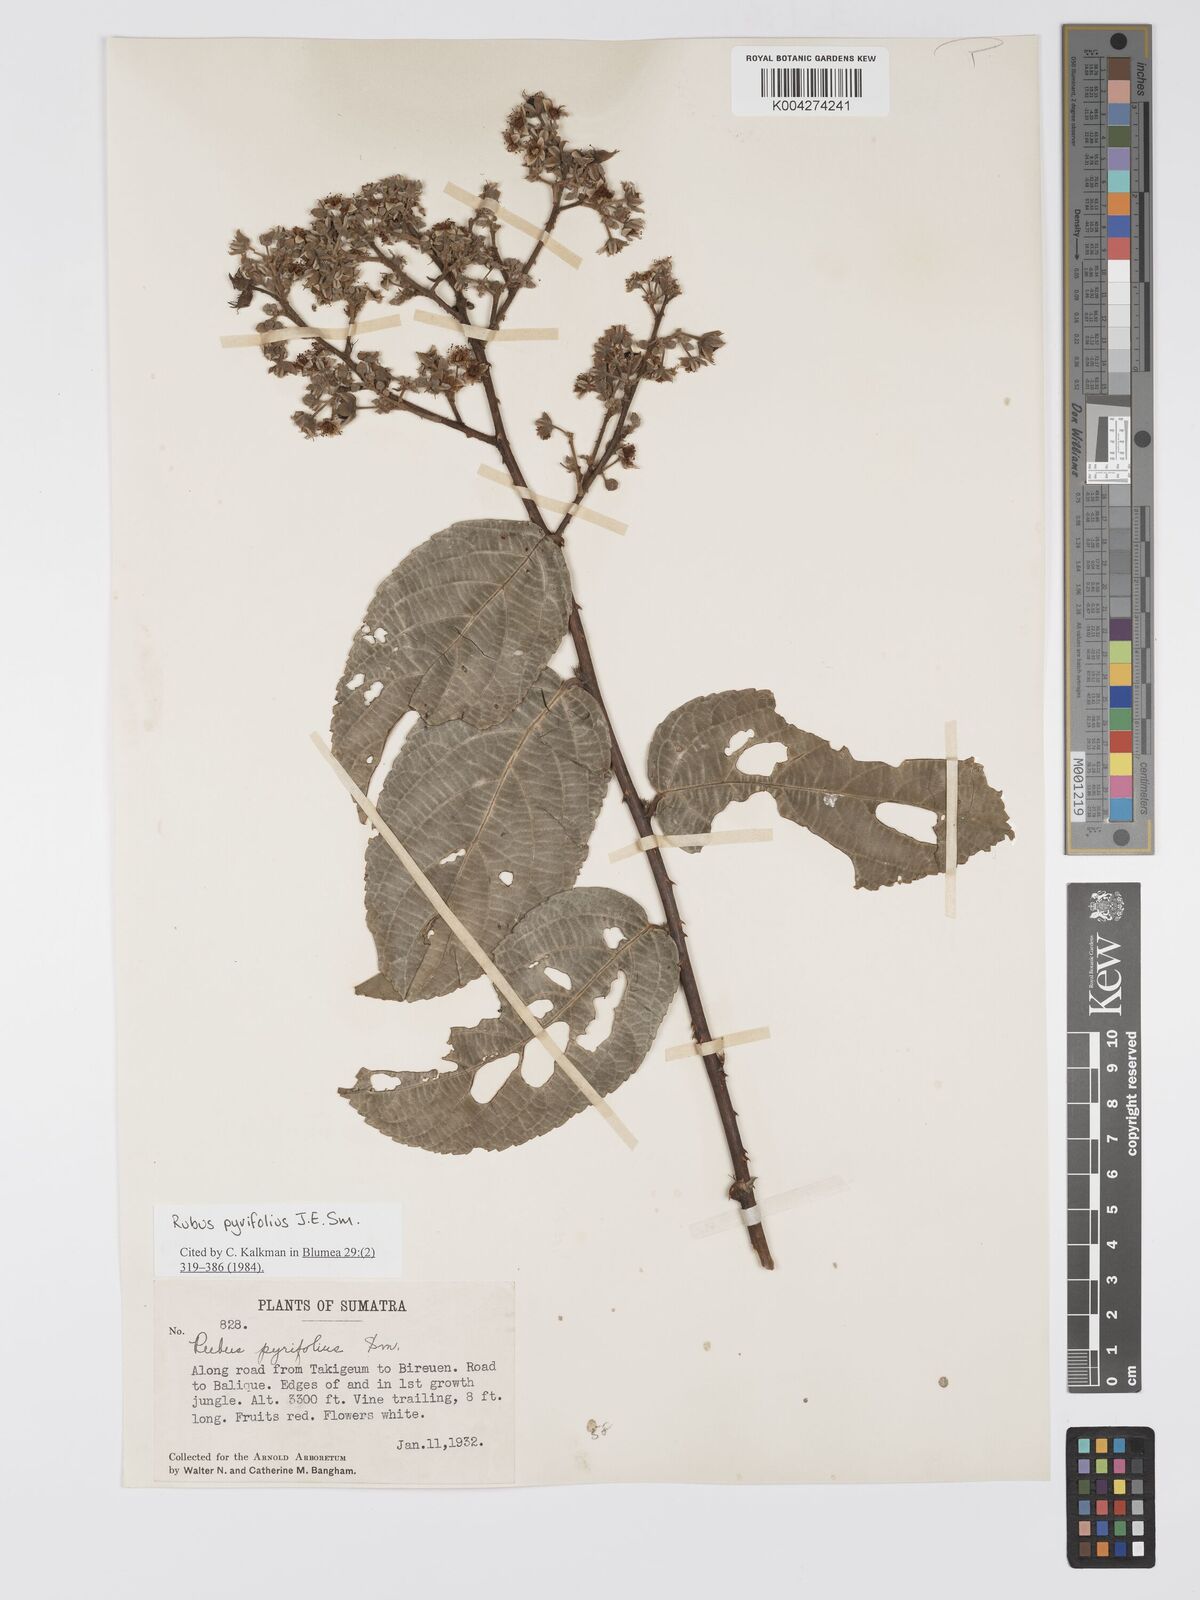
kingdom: Plantae
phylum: Tracheophyta
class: Magnoliopsida
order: Rosales
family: Rosaceae
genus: Rubus
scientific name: Rubus pirifolius
